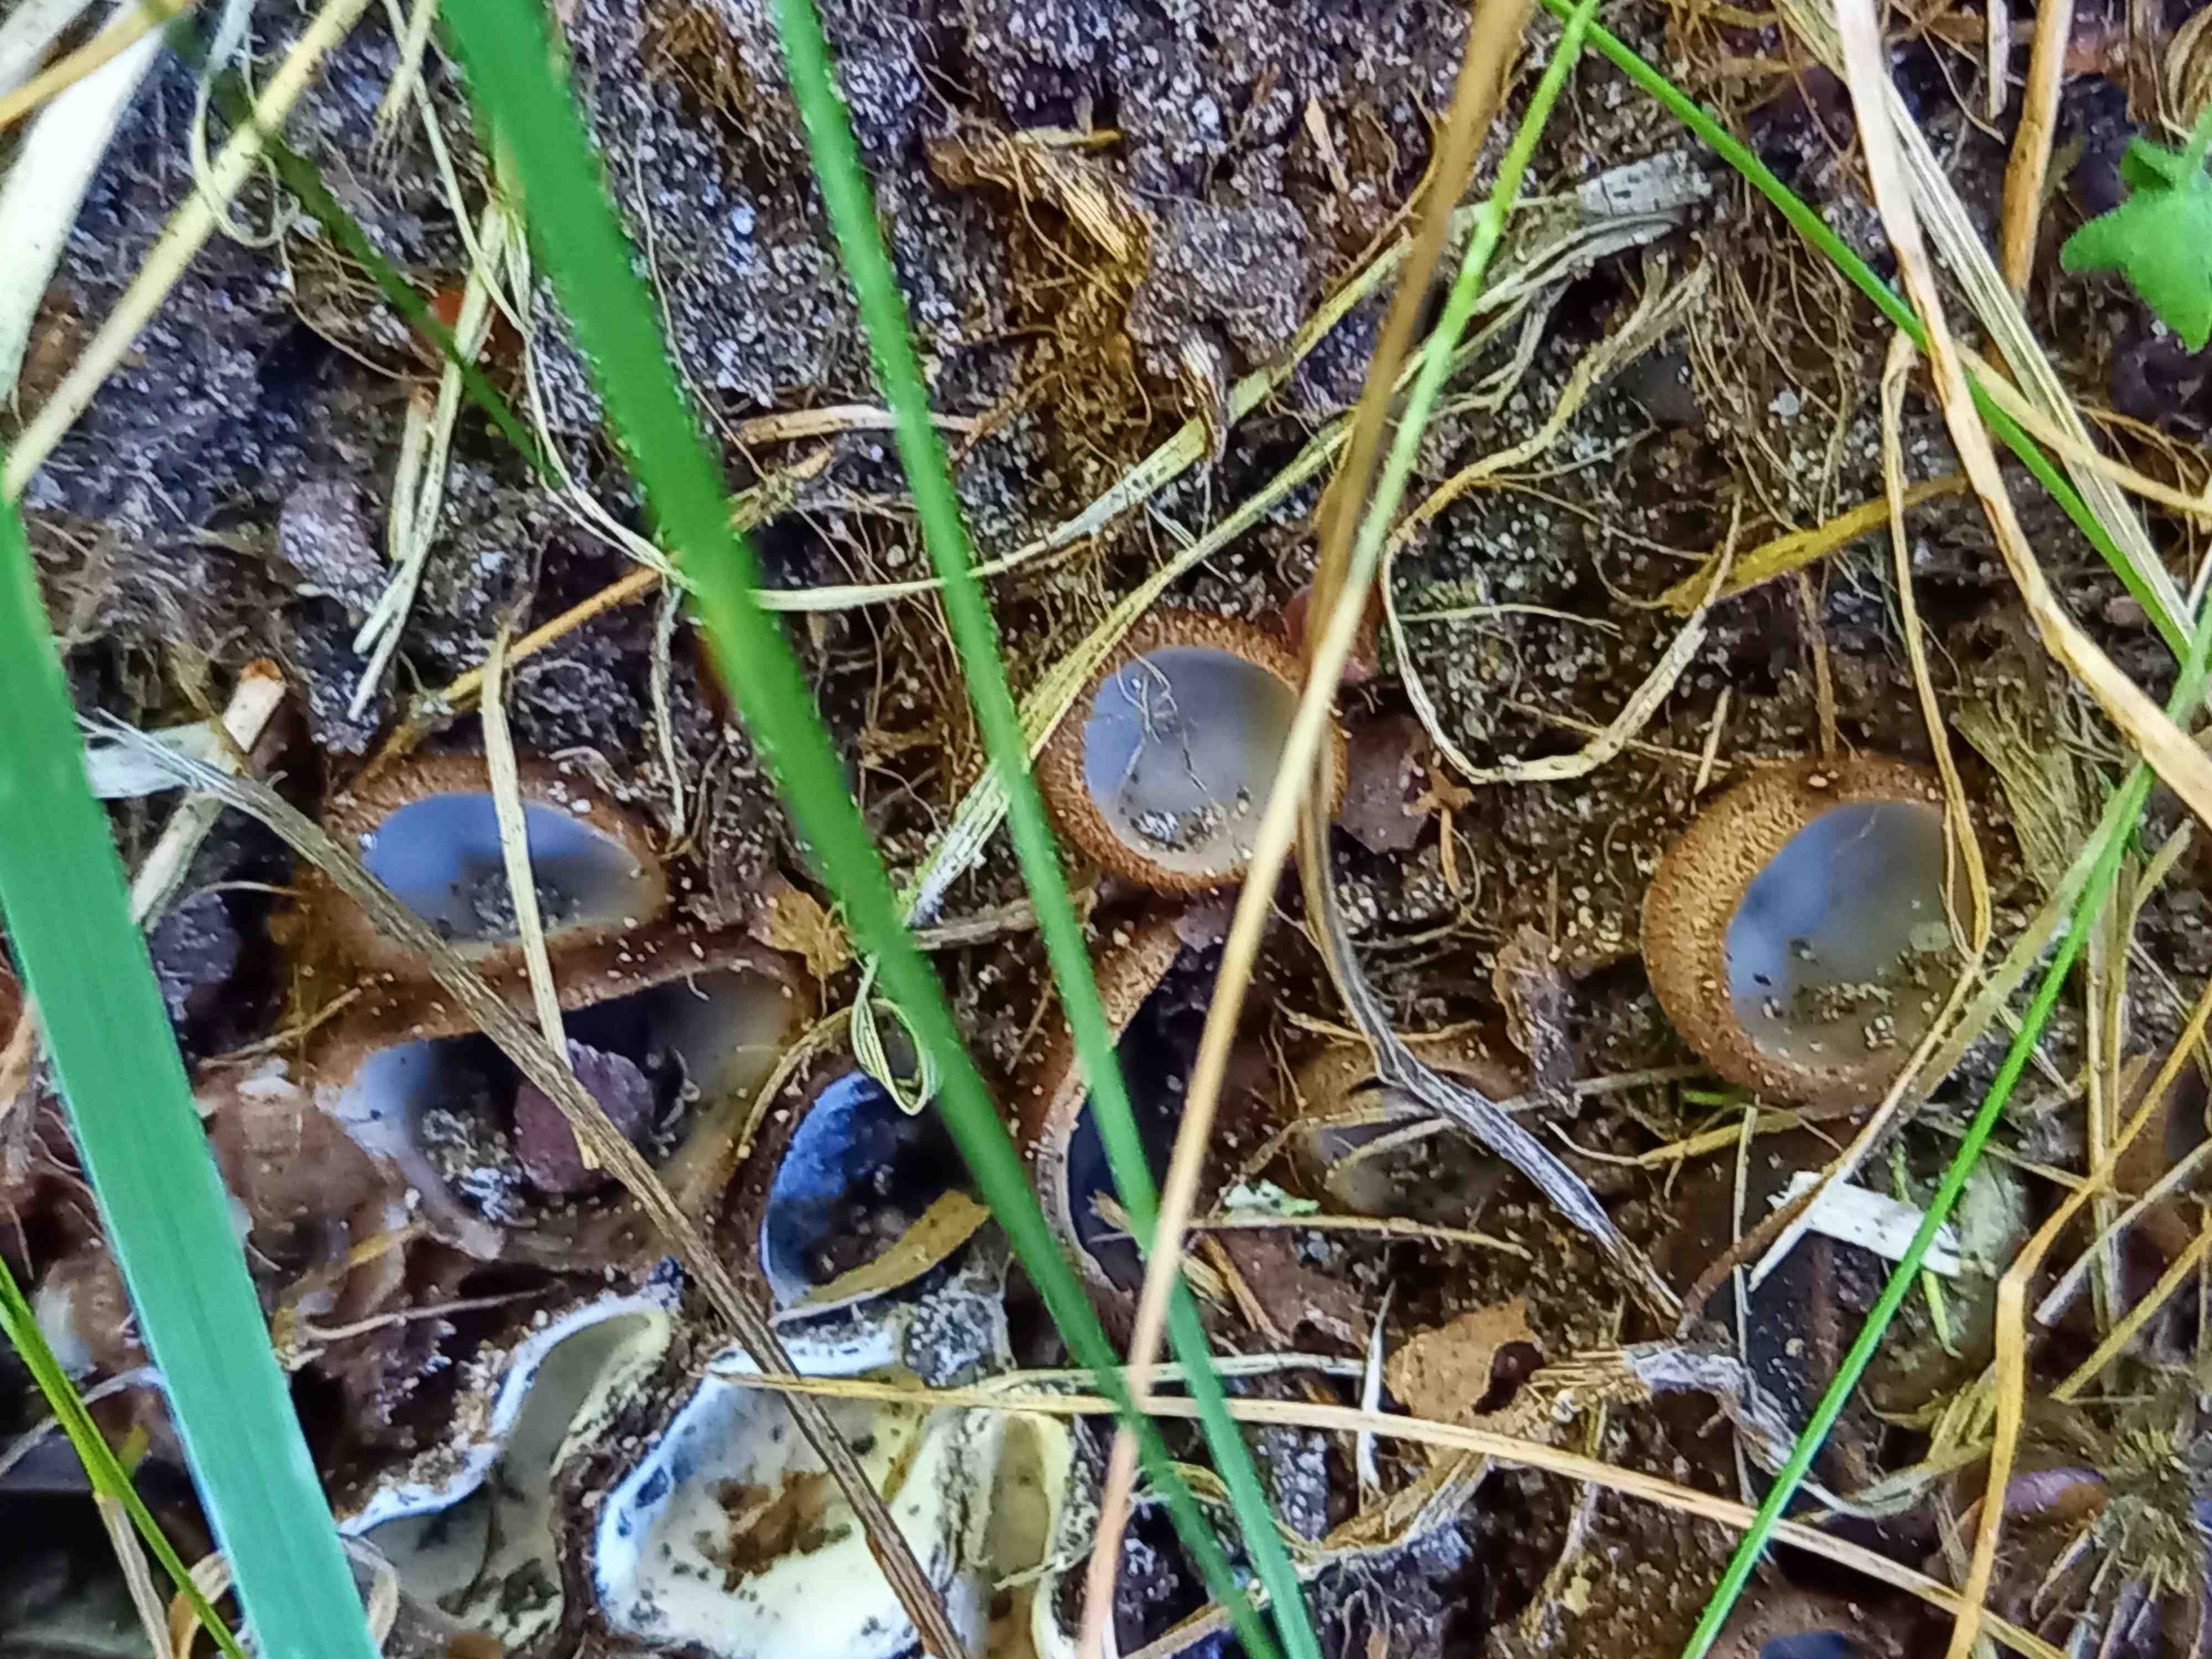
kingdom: Fungi
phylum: Ascomycota
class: Pezizomycetes
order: Pezizales
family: Pyronemataceae
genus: Humaria
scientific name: Humaria hemisphaerica
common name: halvkugleformet børstebæger
